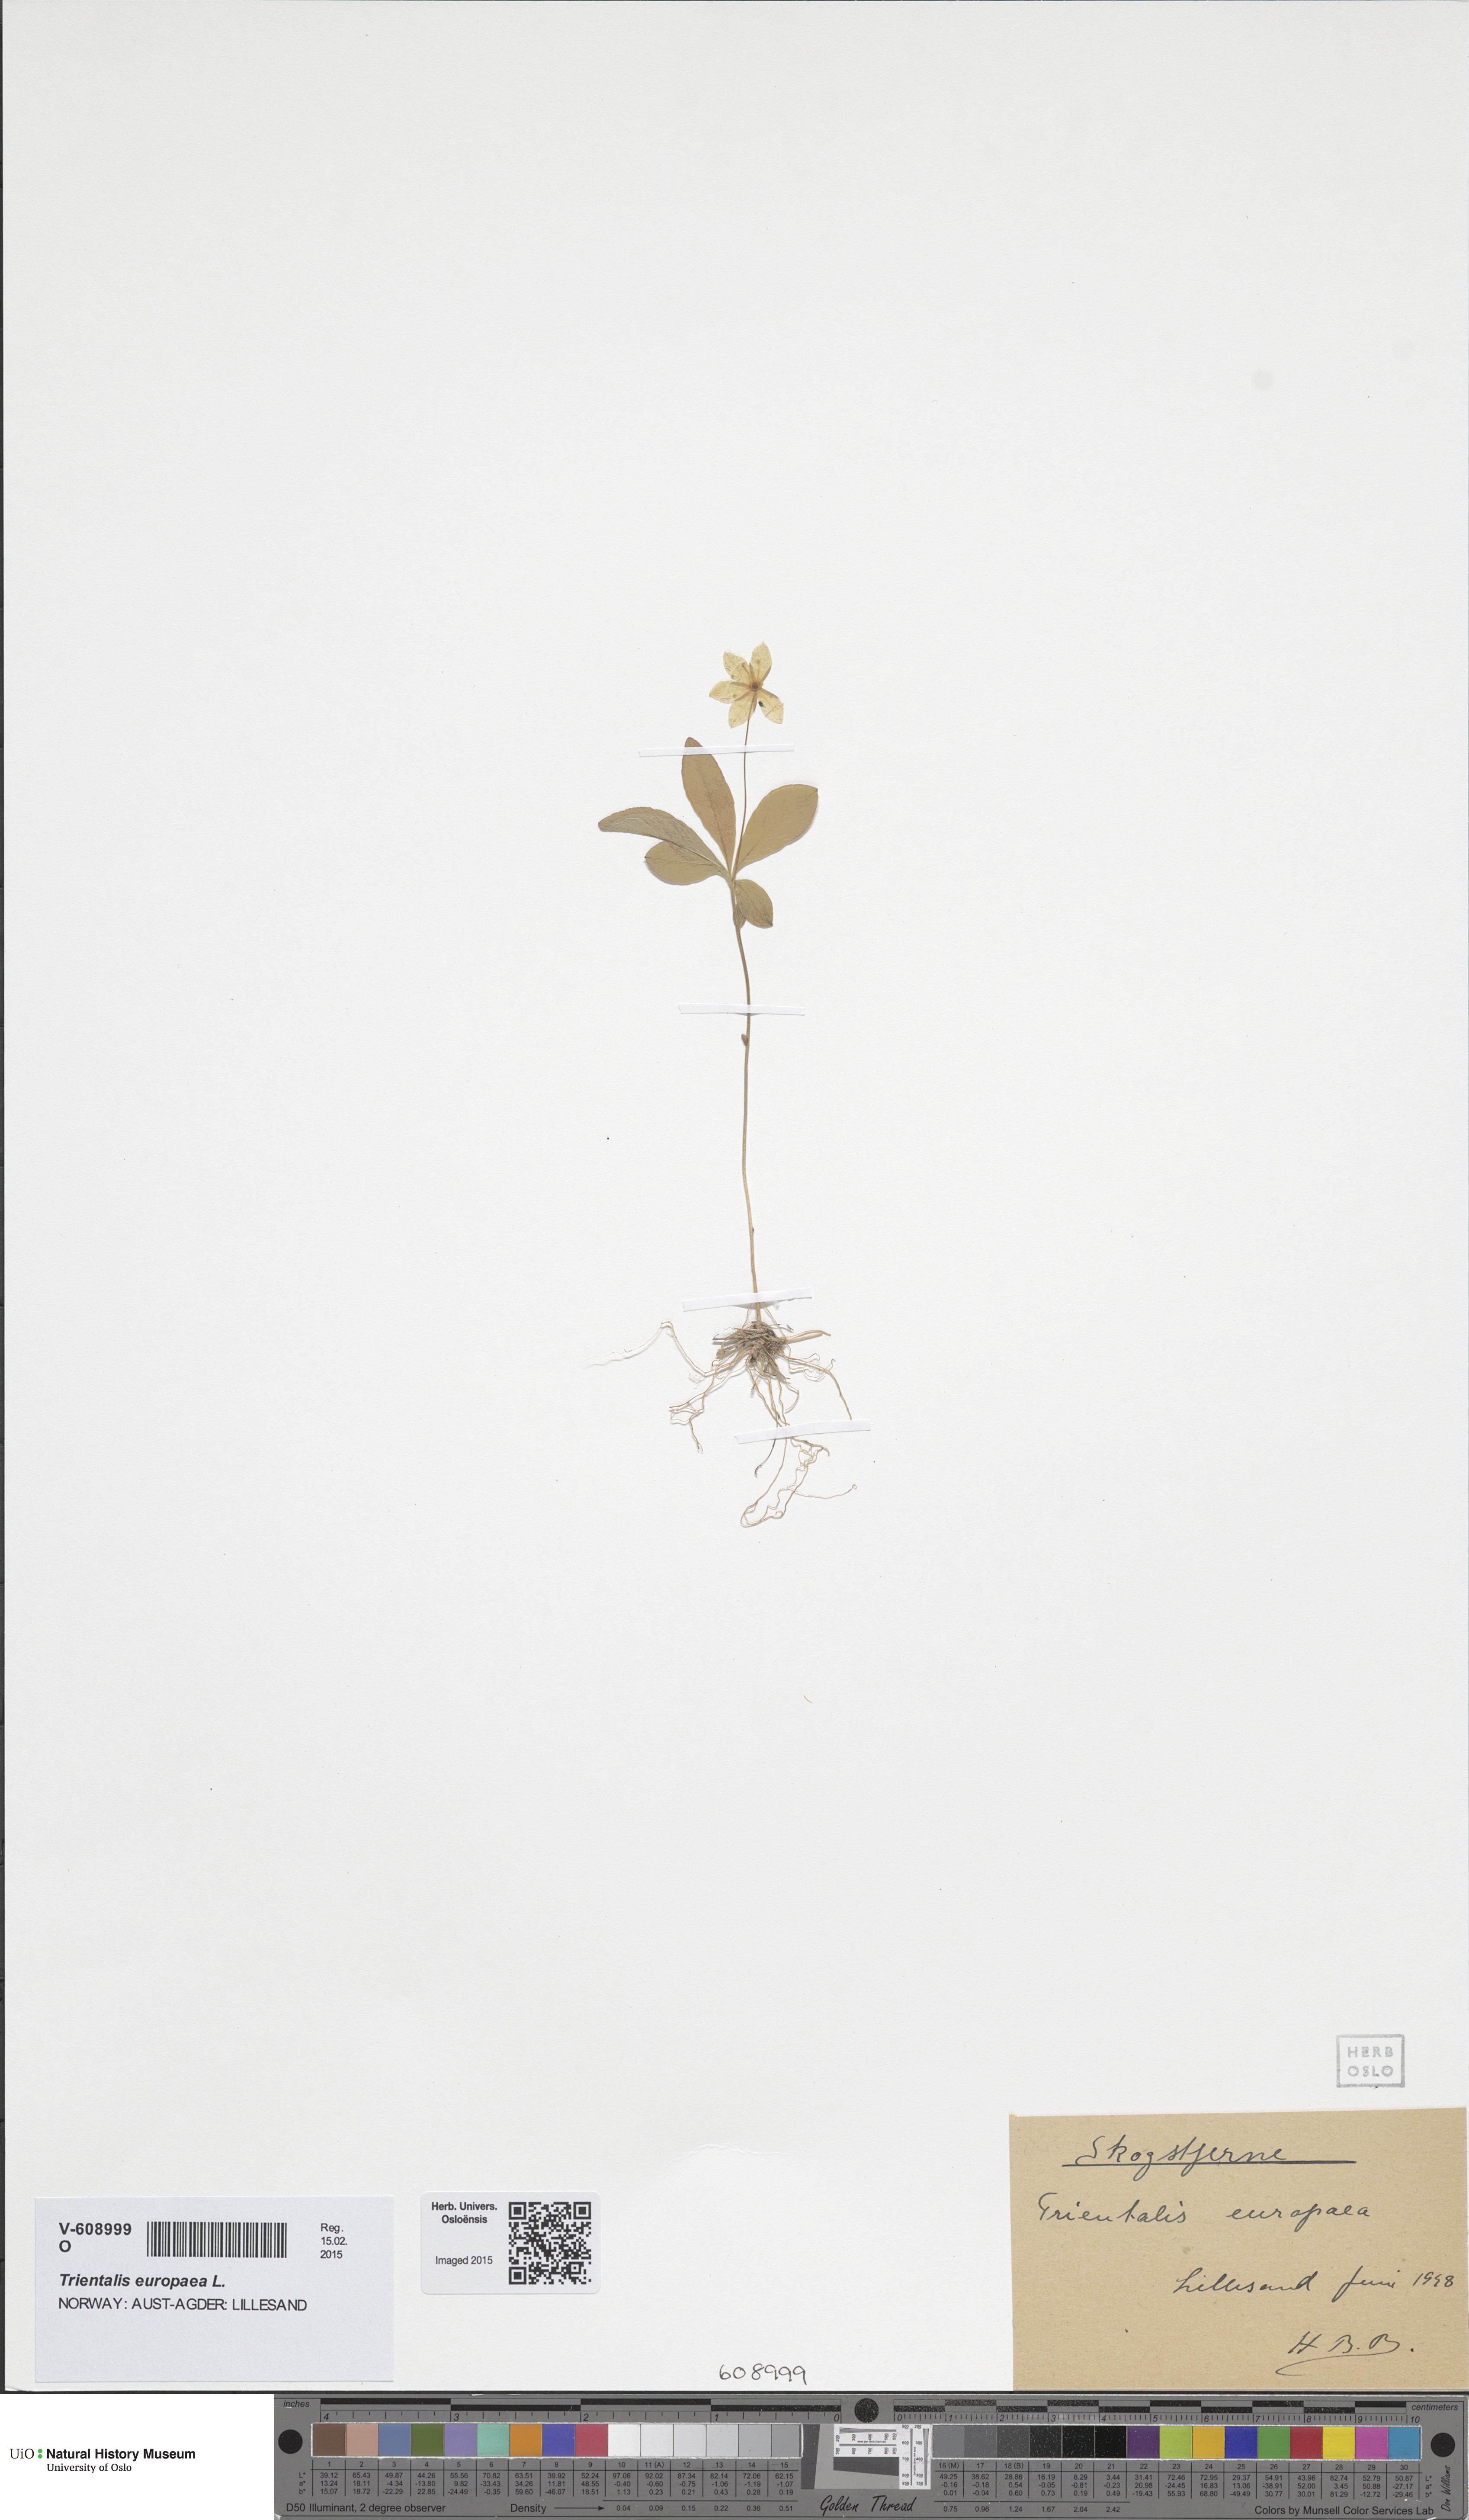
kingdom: Plantae
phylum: Tracheophyta
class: Magnoliopsida
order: Ericales
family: Primulaceae
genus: Lysimachia
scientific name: Lysimachia europaea
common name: Arctic starflower
